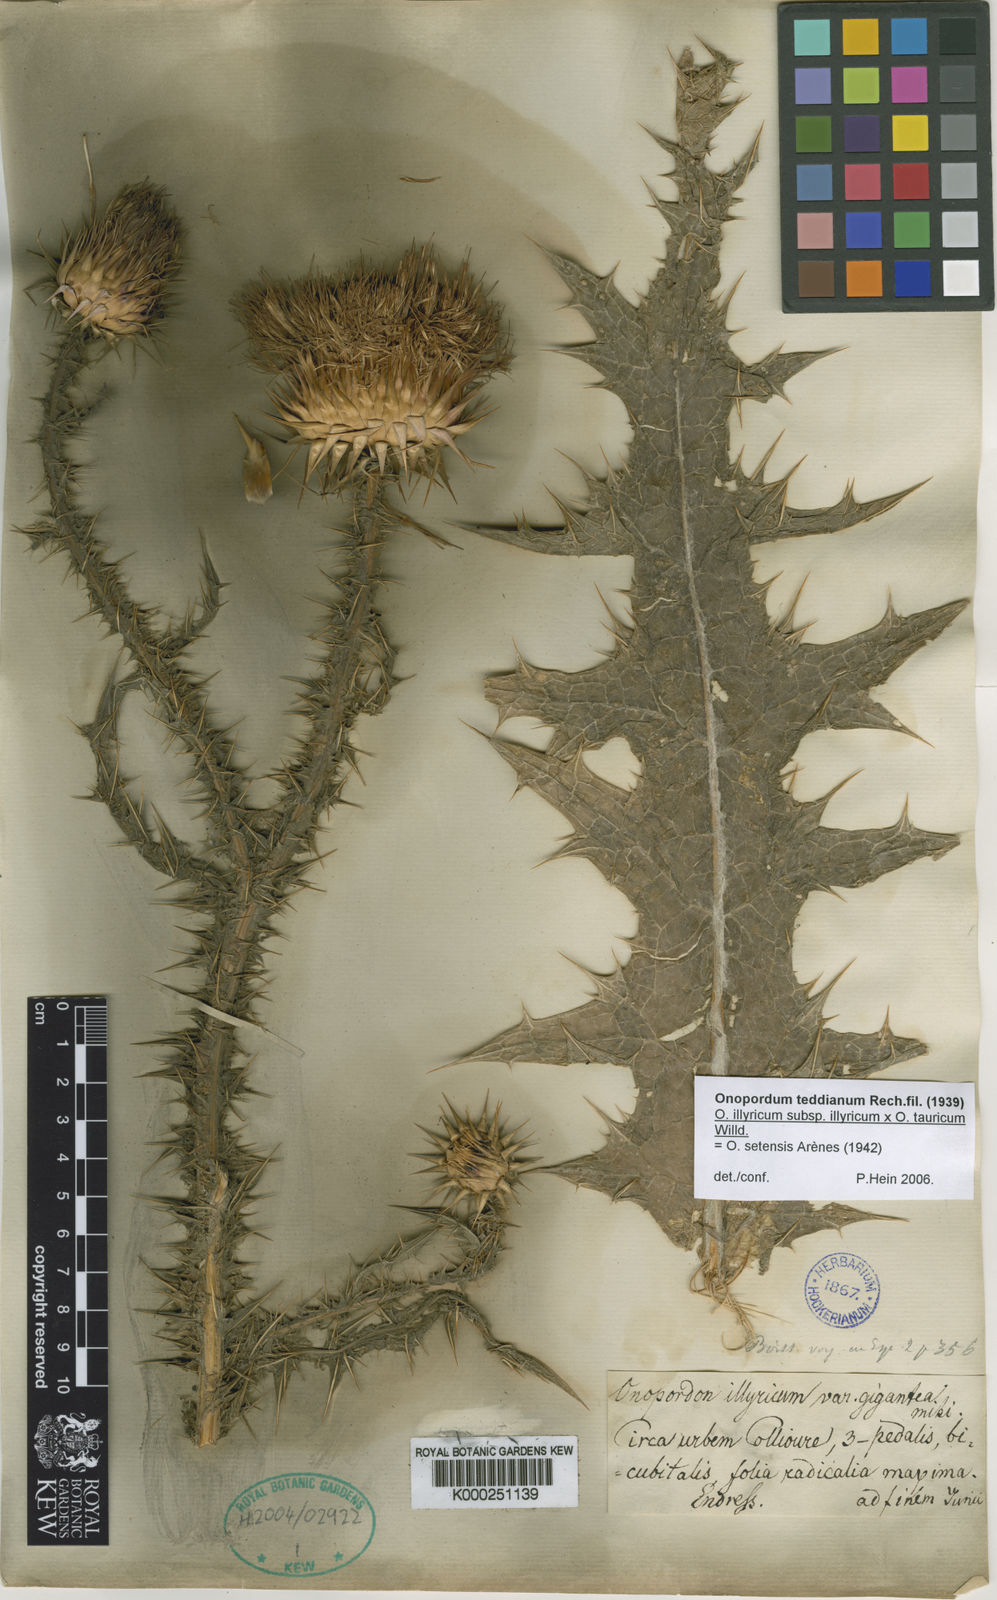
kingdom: Plantae
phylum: Tracheophyta
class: Magnoliopsida
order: Asterales
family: Asteraceae
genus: Onopordum
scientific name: Onopordum illyricum
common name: Illyrian thistle
